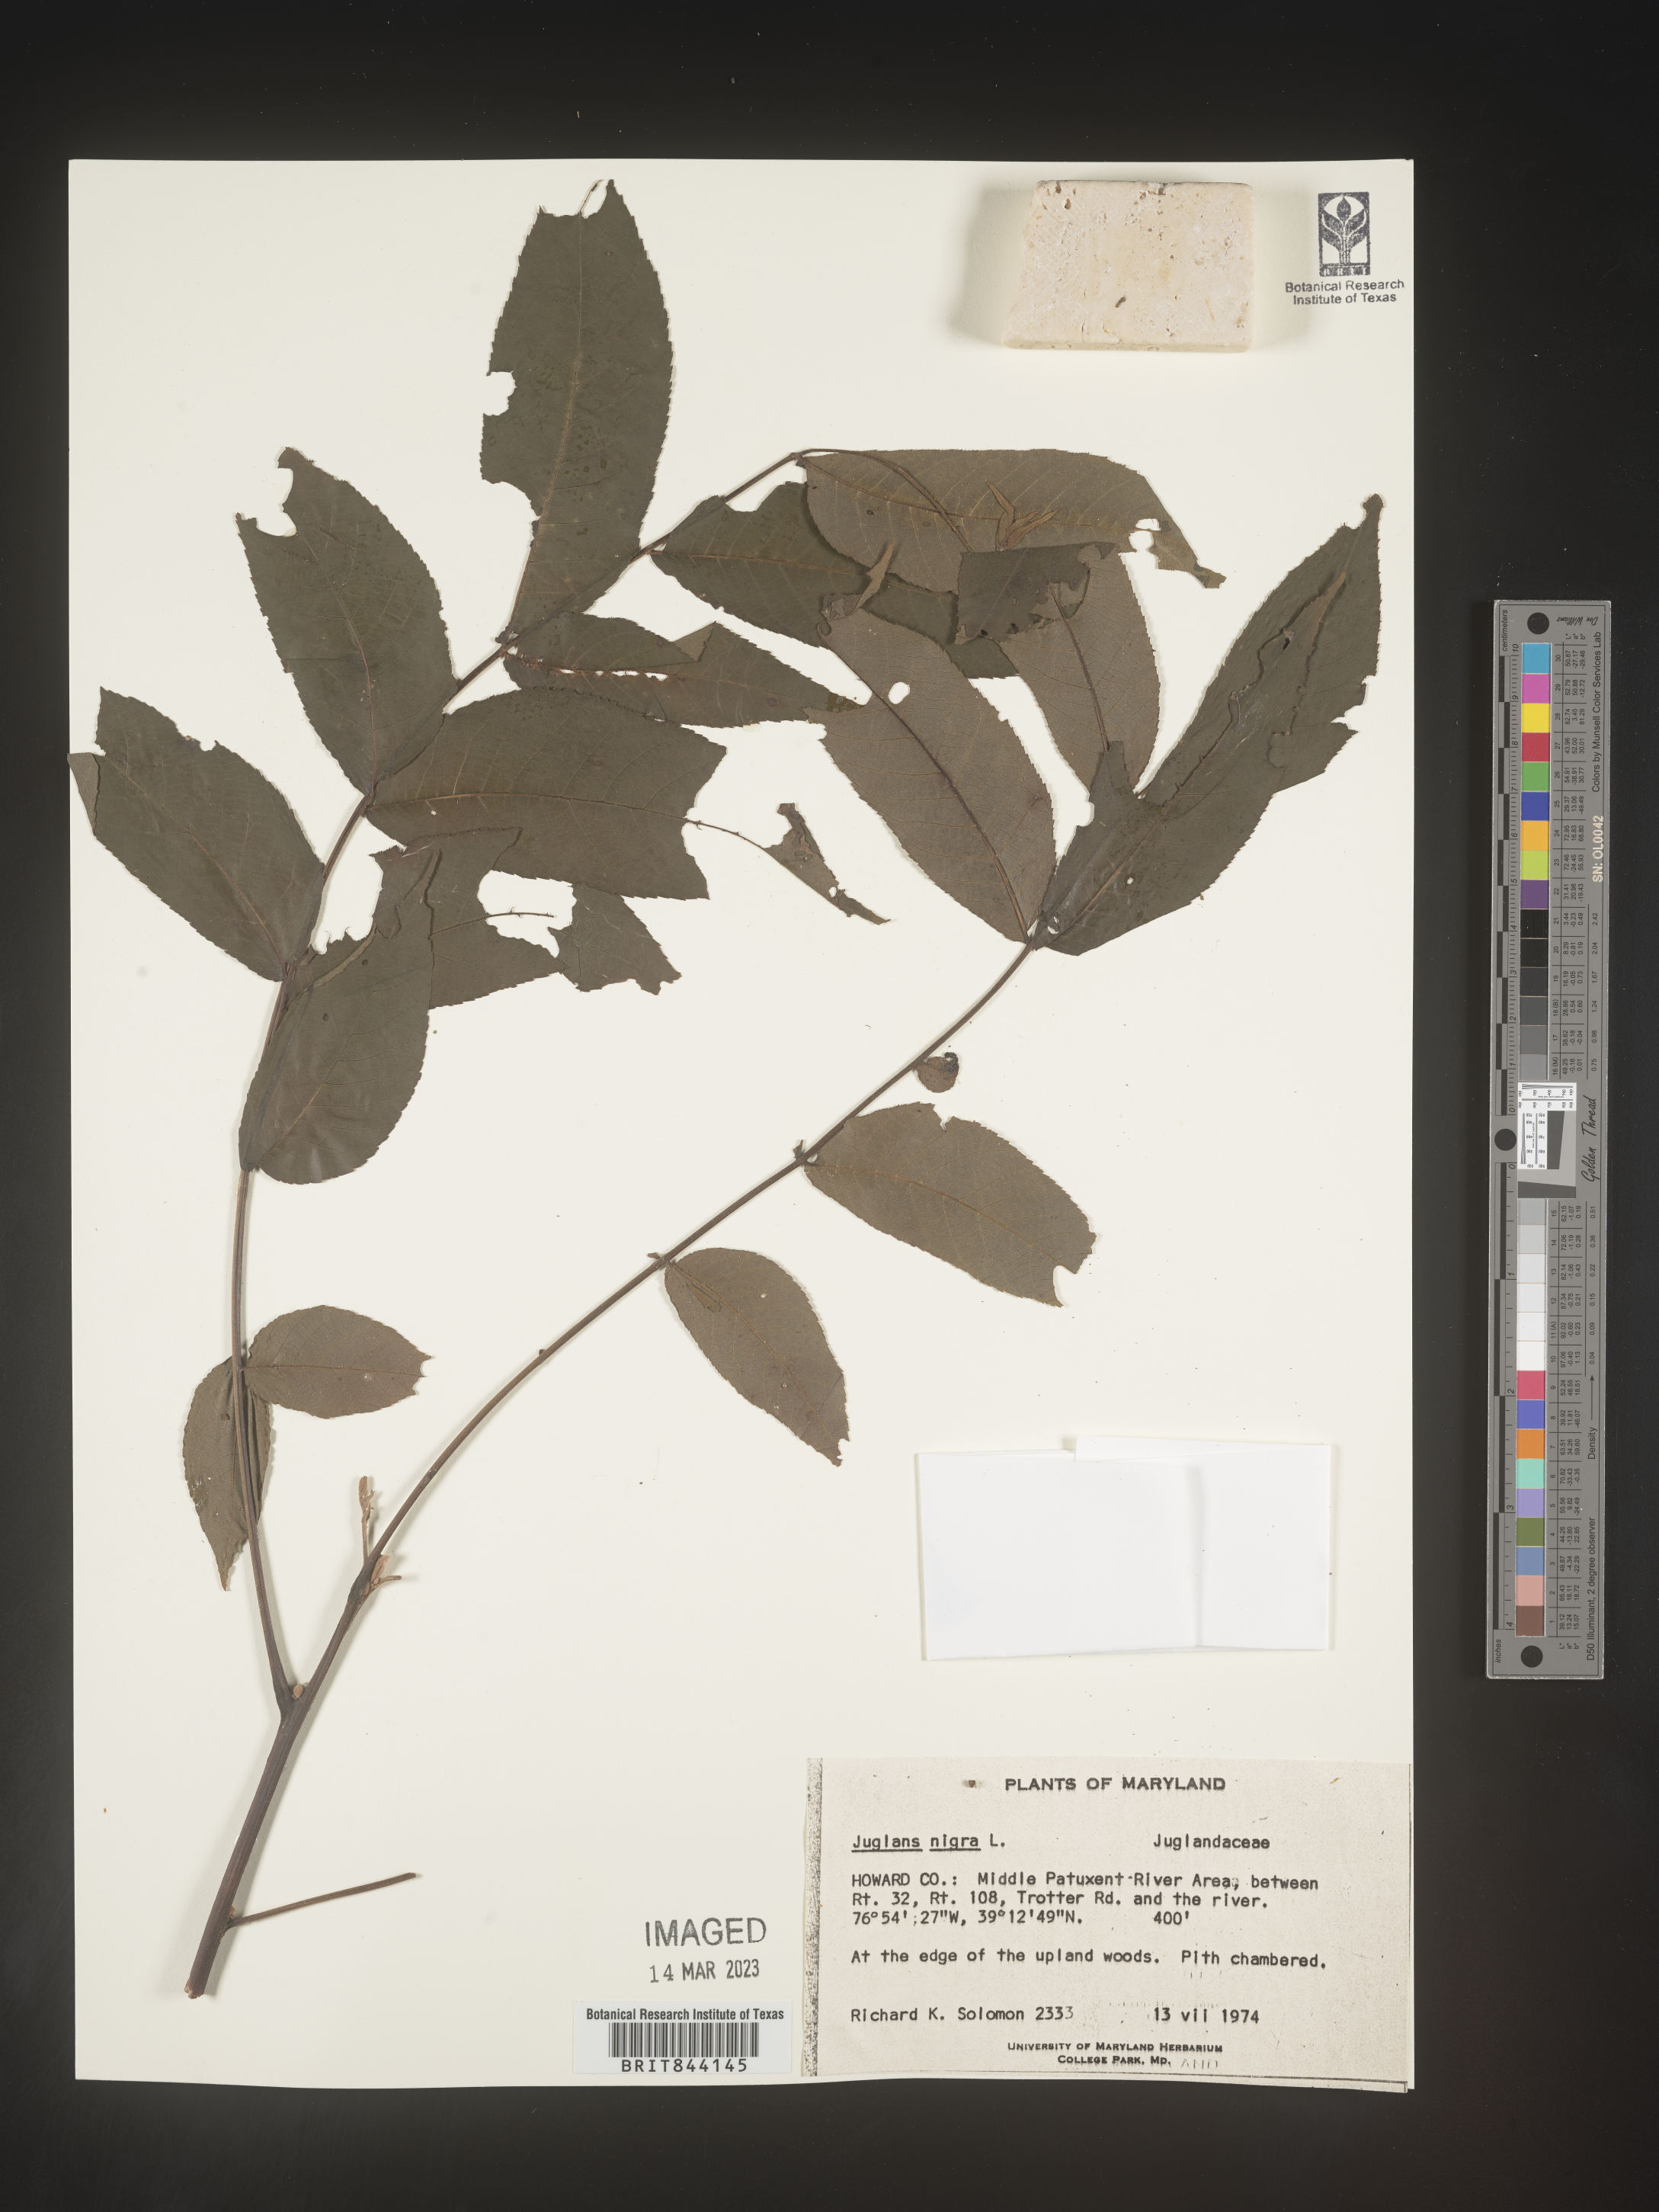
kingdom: Plantae
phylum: Tracheophyta
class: Magnoliopsida
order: Fagales
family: Juglandaceae
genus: Juglans
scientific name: Juglans nigra
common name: Black walnut
